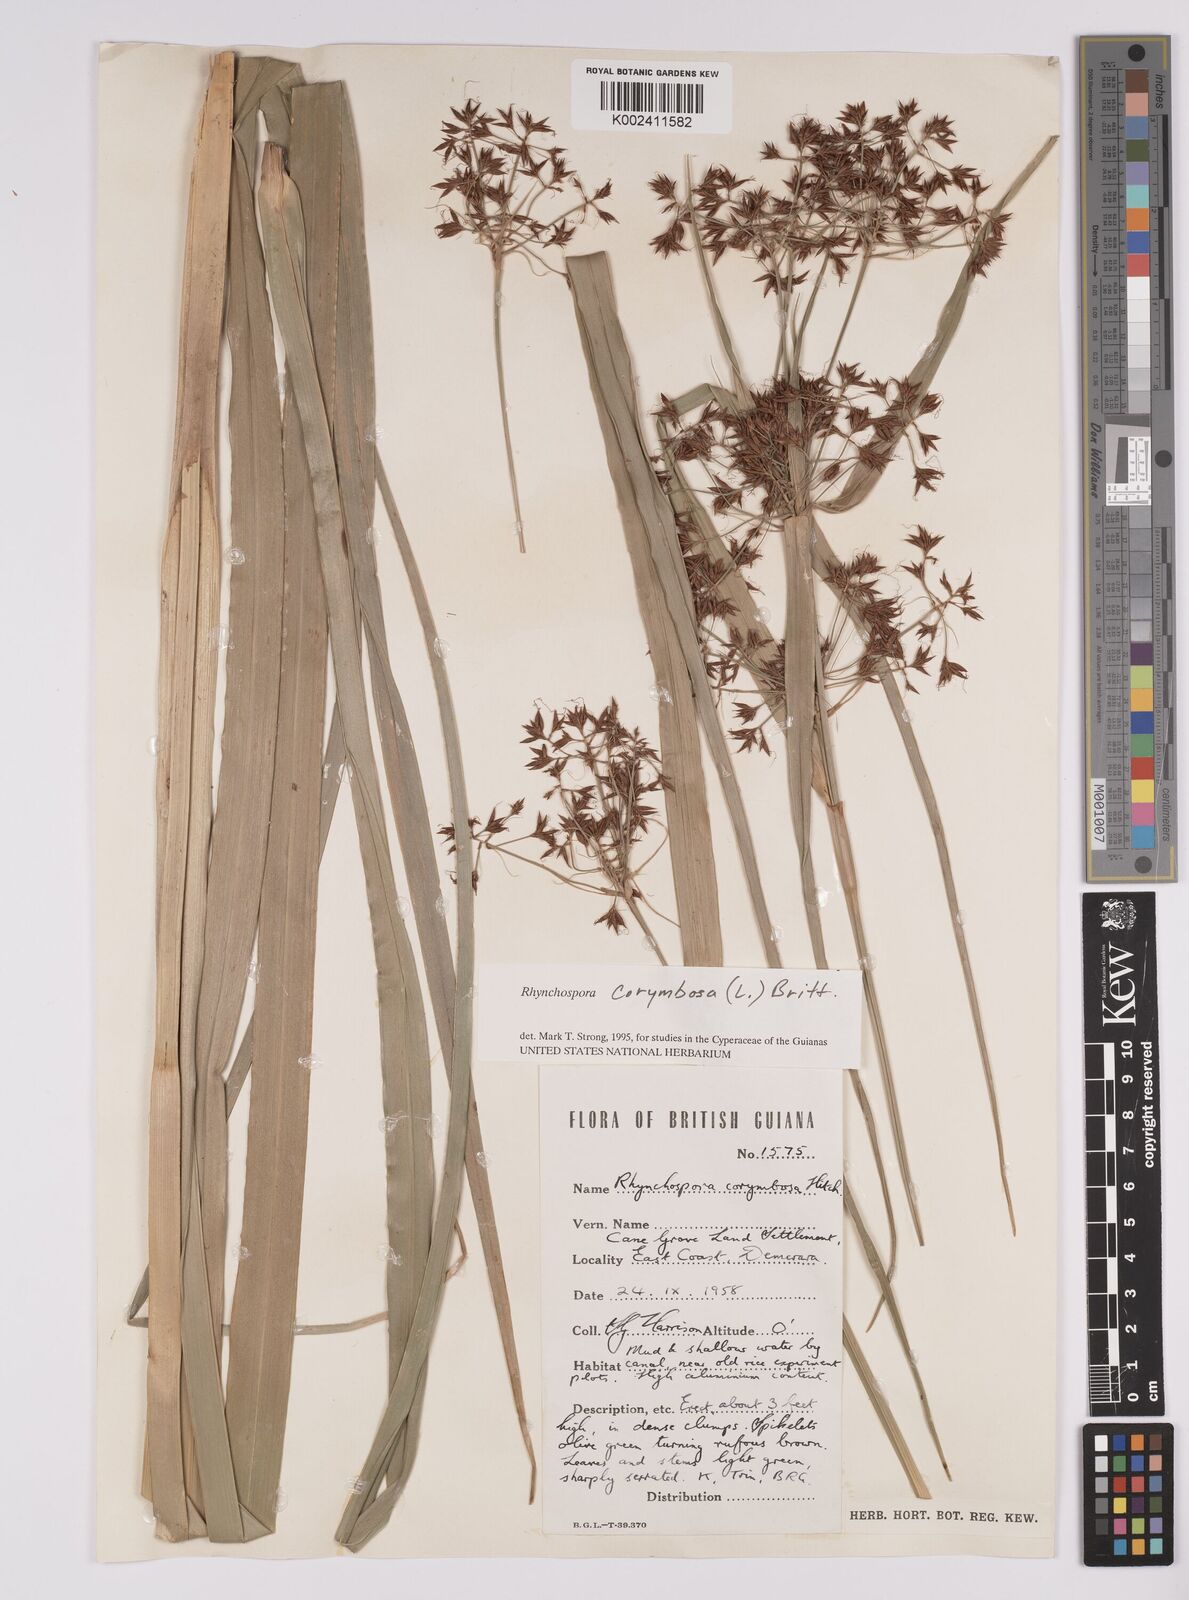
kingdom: Plantae
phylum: Tracheophyta
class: Liliopsida
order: Poales
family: Cyperaceae
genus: Rhynchospora
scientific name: Rhynchospora corymbosa
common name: Golden beak sedge
